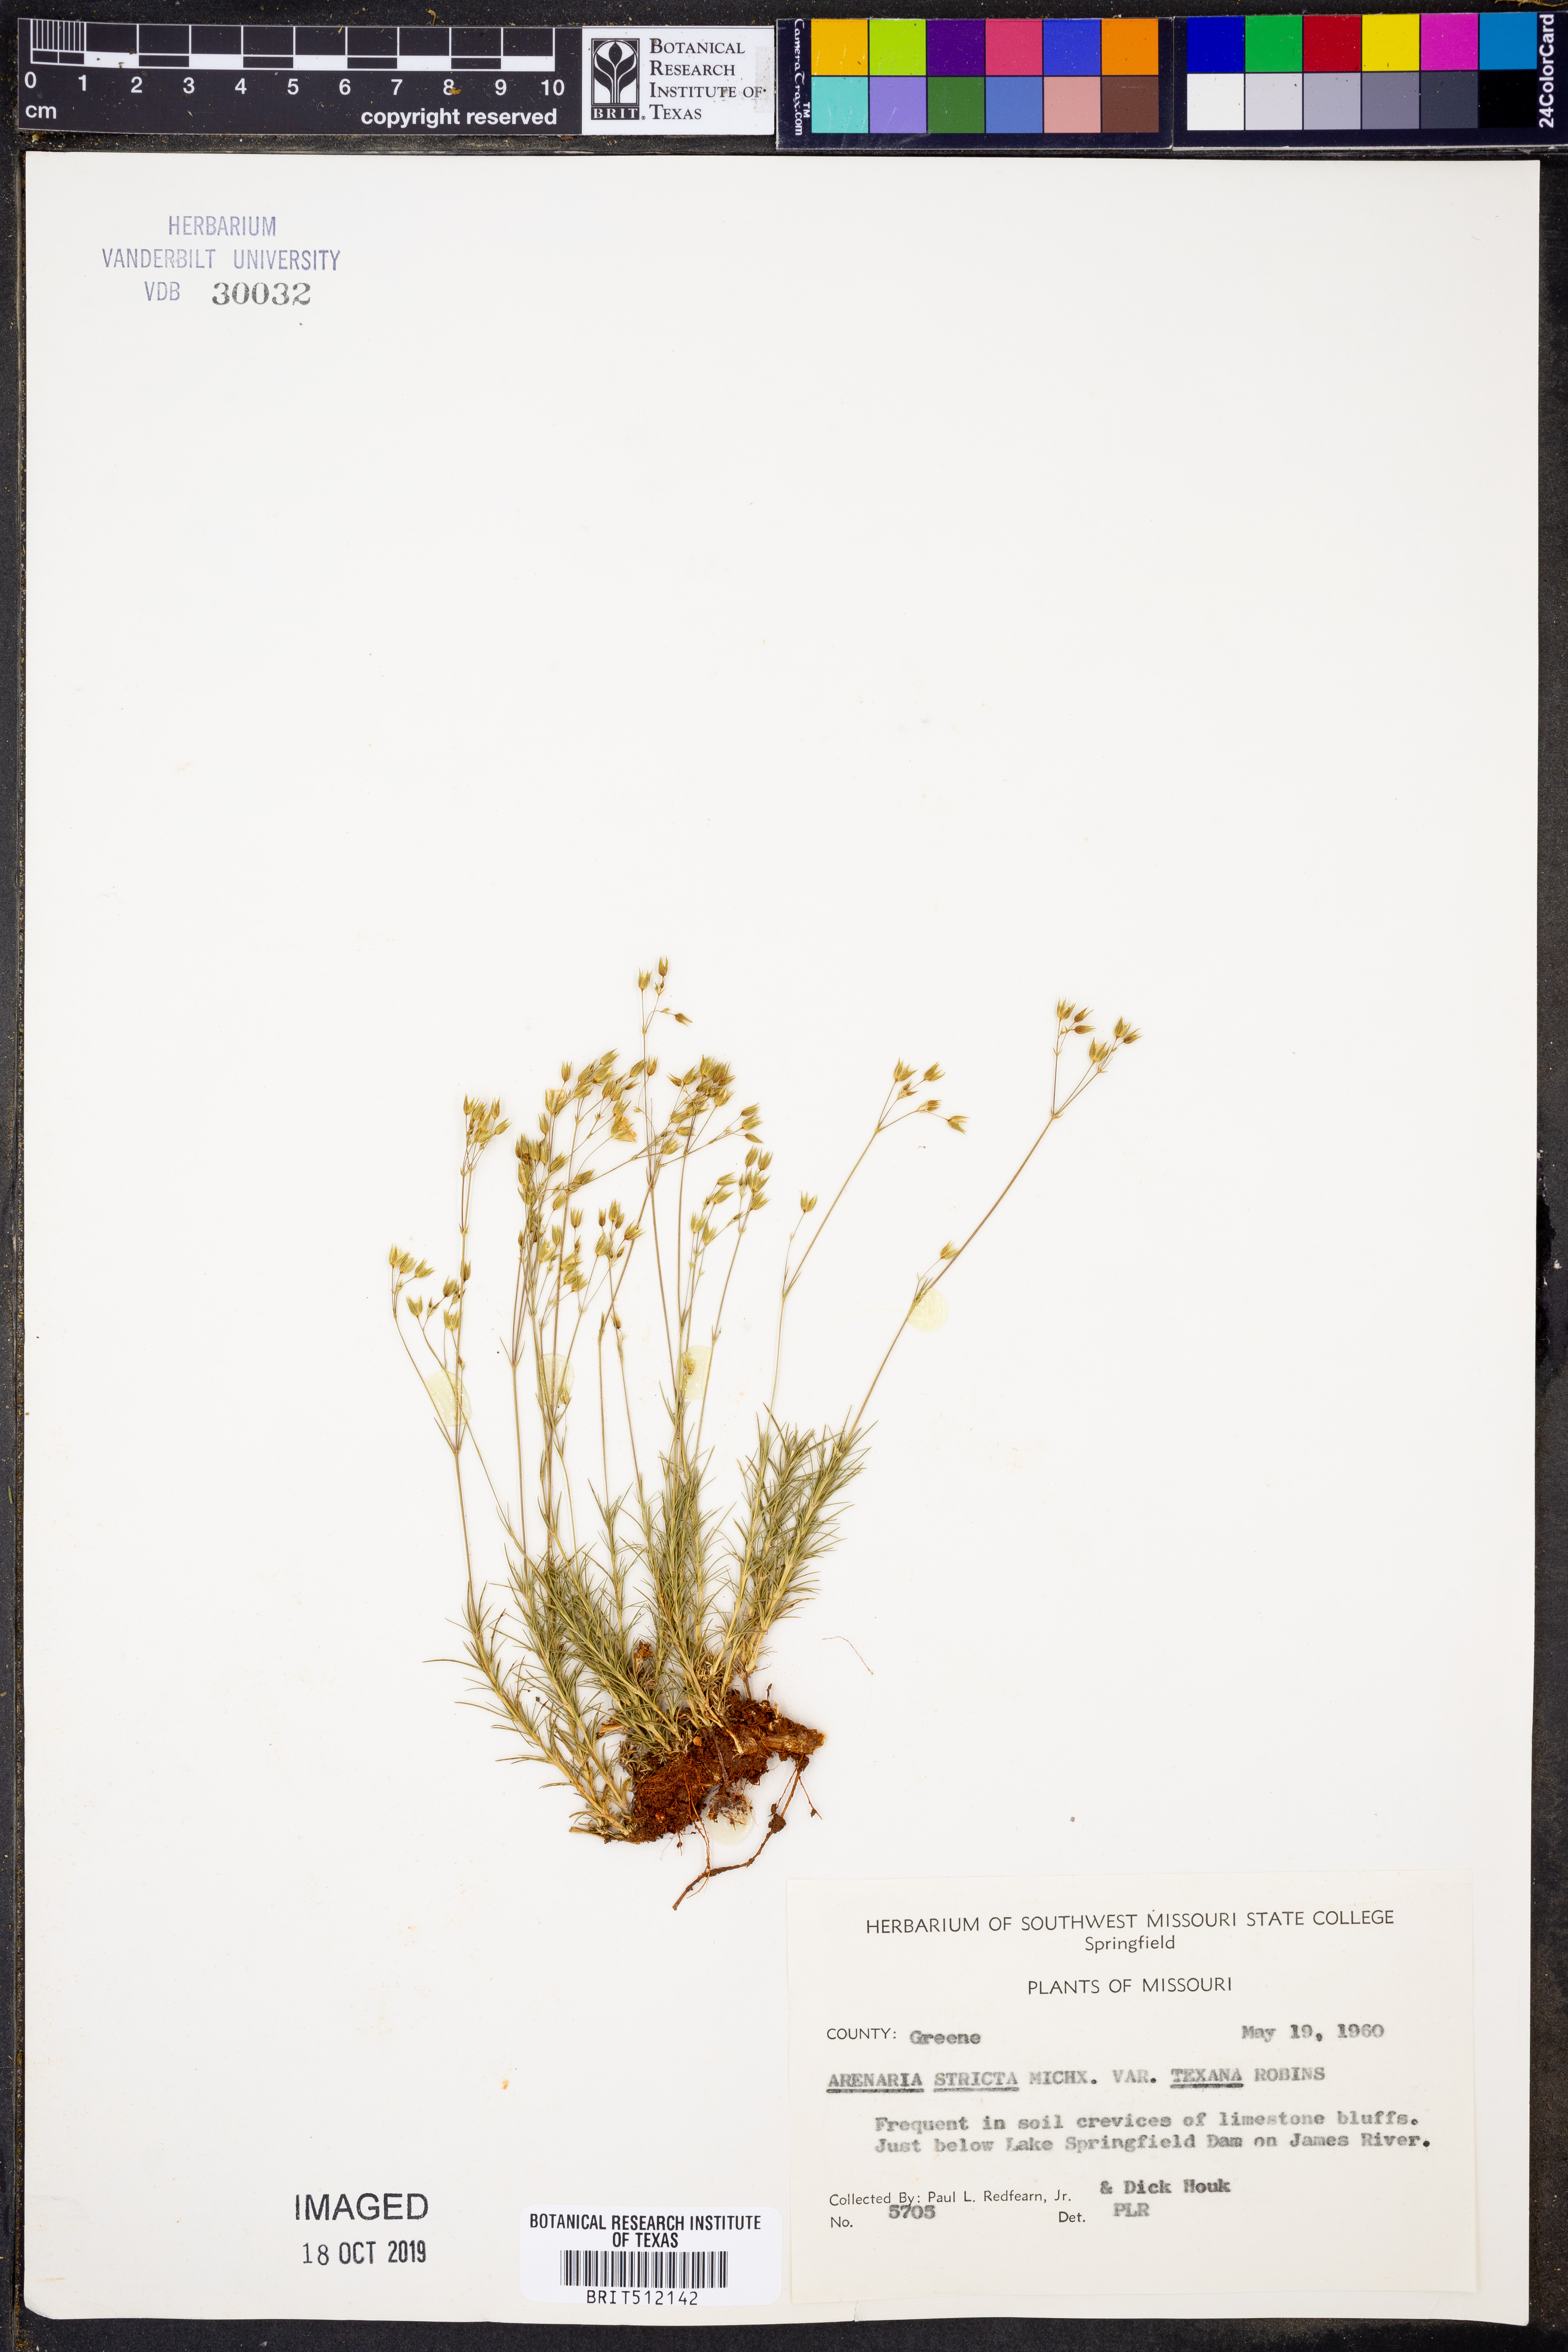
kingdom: Plantae
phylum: Tracheophyta
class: Magnoliopsida
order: Caryophyllales
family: Caryophyllaceae
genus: Sabulina
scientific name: Sabulina michauxii
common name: Michaux's stitchwort
